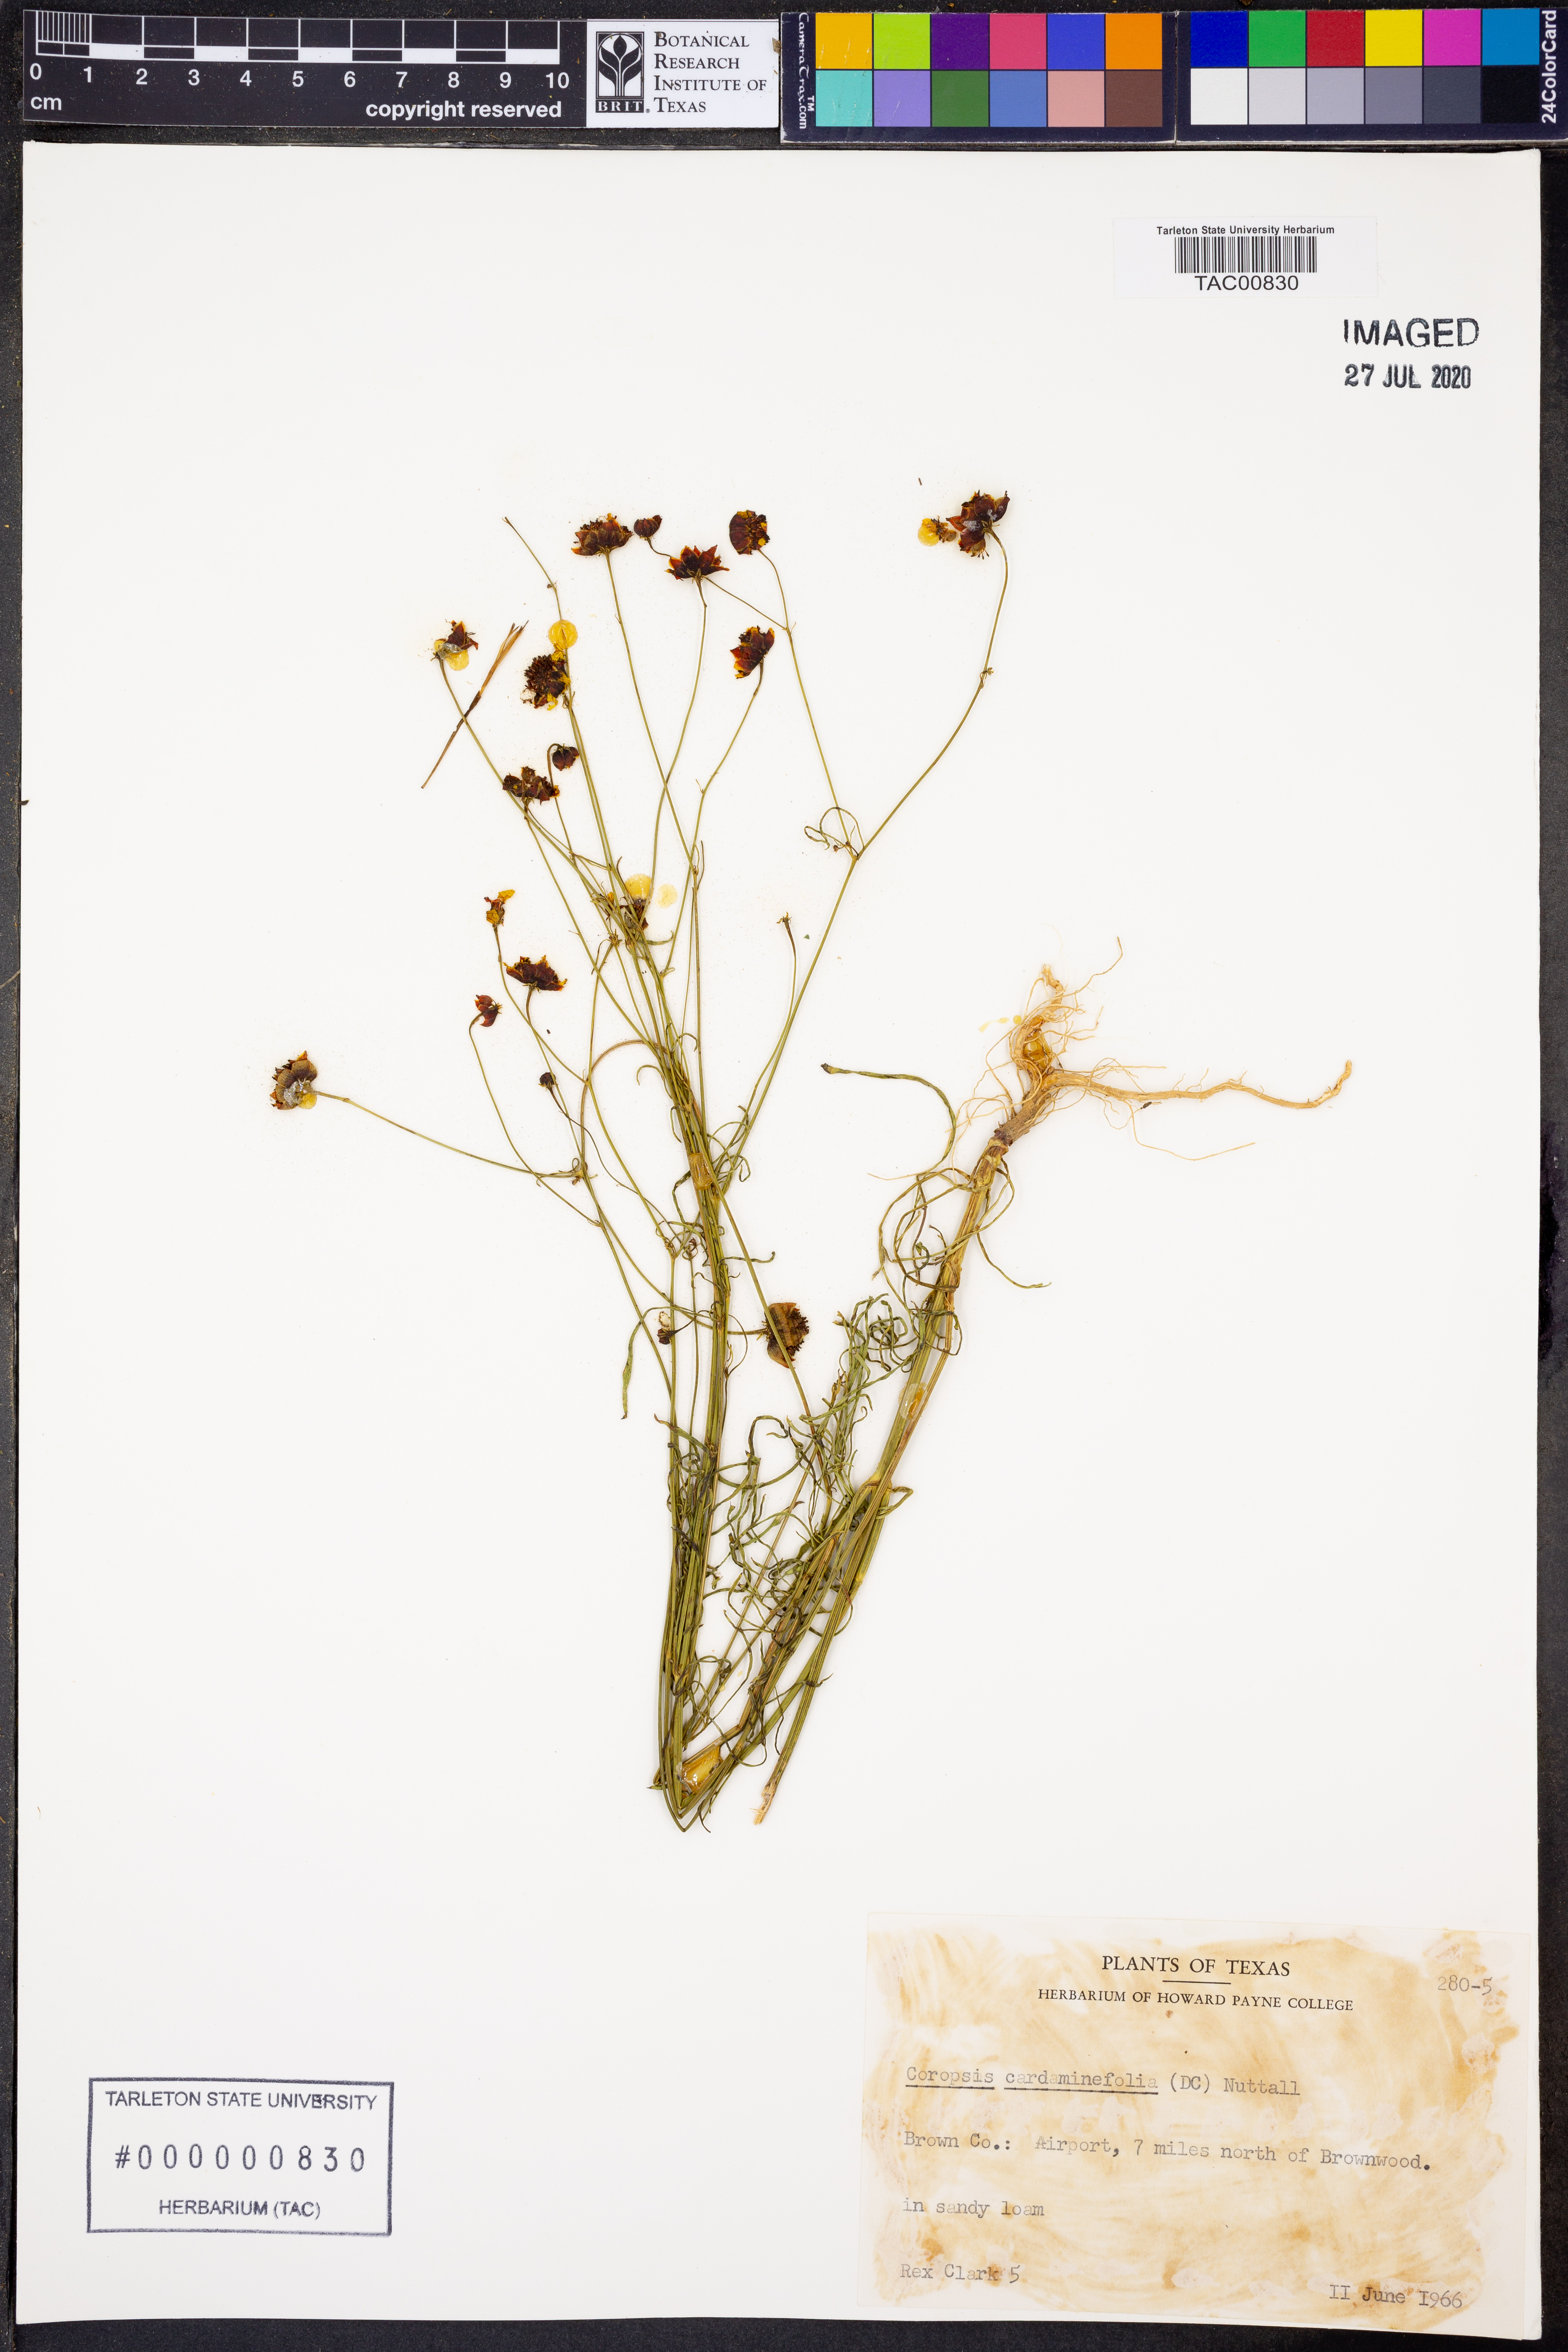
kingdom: Plantae
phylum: Tracheophyta
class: Magnoliopsida
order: Asterales
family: Asteraceae
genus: Coreopsis
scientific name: Coreopsis tinctoria
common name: Garden tickseed
